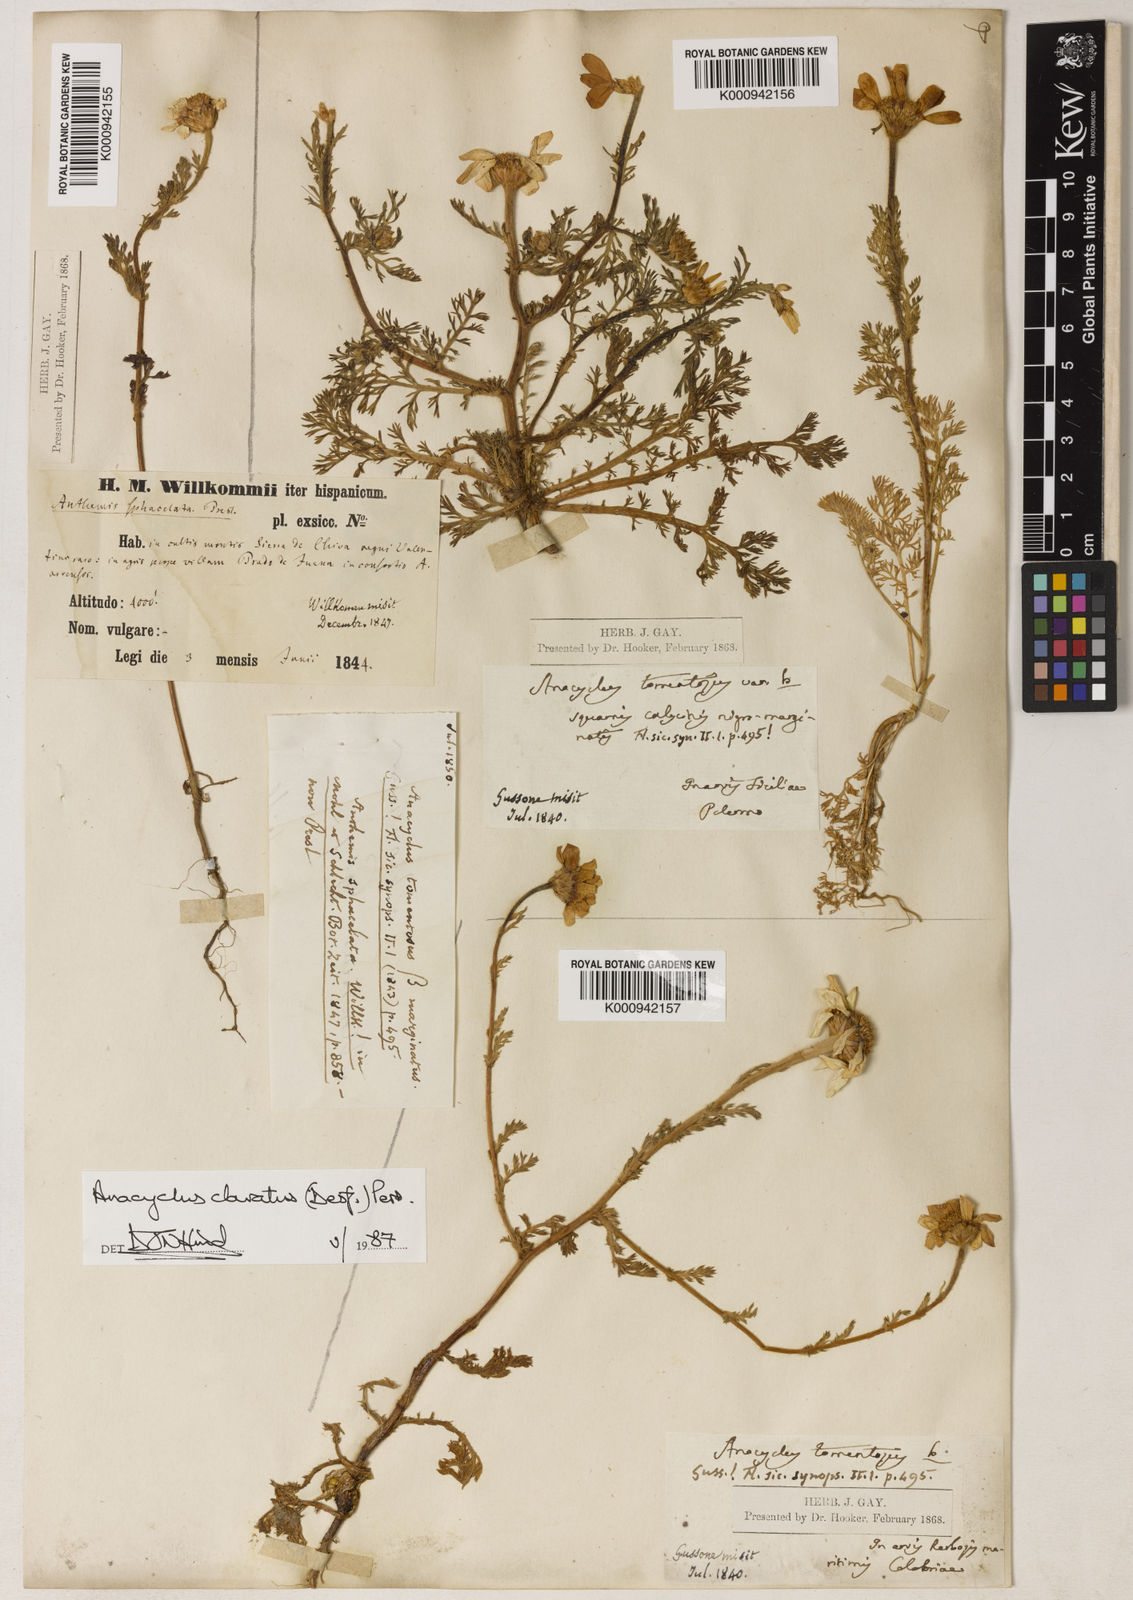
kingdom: Plantae
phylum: Tracheophyta
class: Magnoliopsida
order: Asterales
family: Asteraceae
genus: Anacyclus
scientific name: Anacyclus clavatus
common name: Whitebuttons
